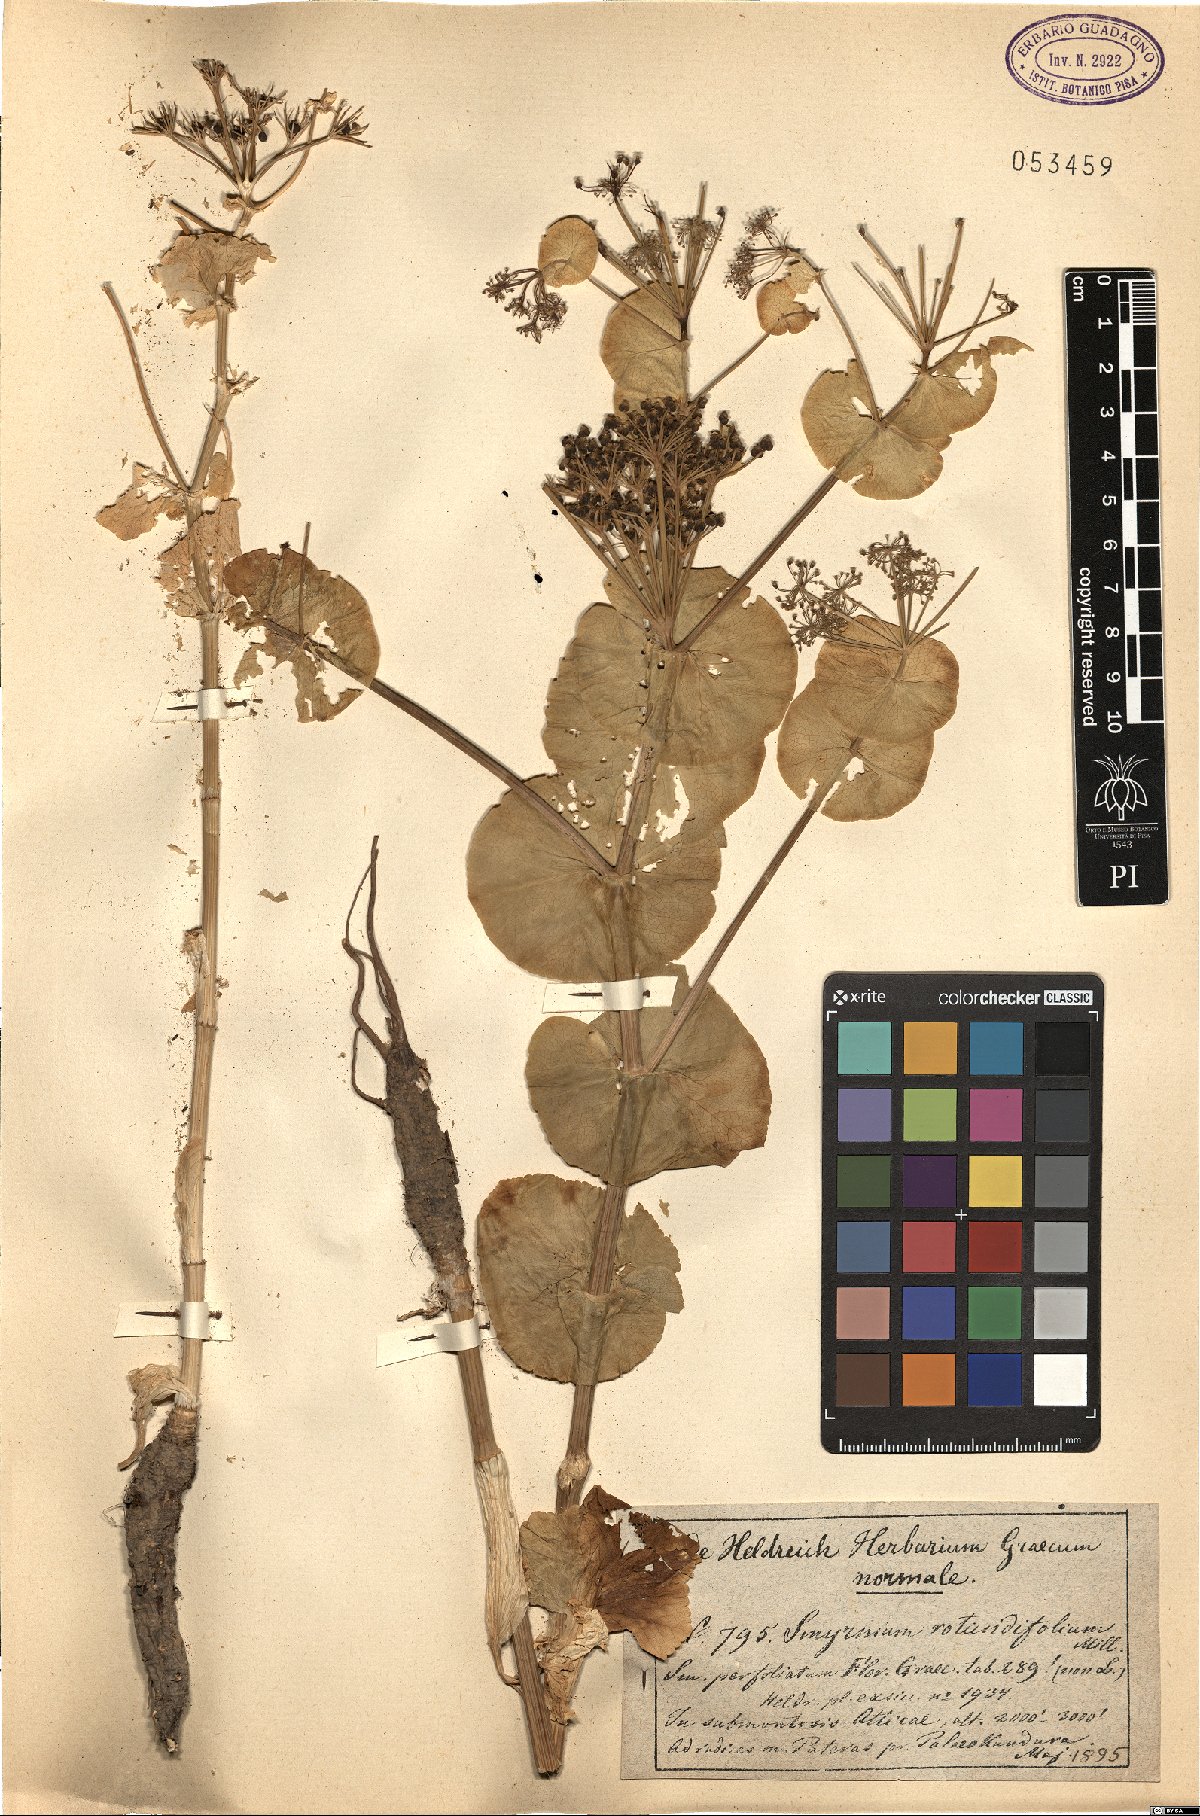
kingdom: Plantae
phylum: Tracheophyta
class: Magnoliopsida
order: Apiales
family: Apiaceae
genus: Smyrnium
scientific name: Smyrnium perfoliatum
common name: Perfoliate alexanders
